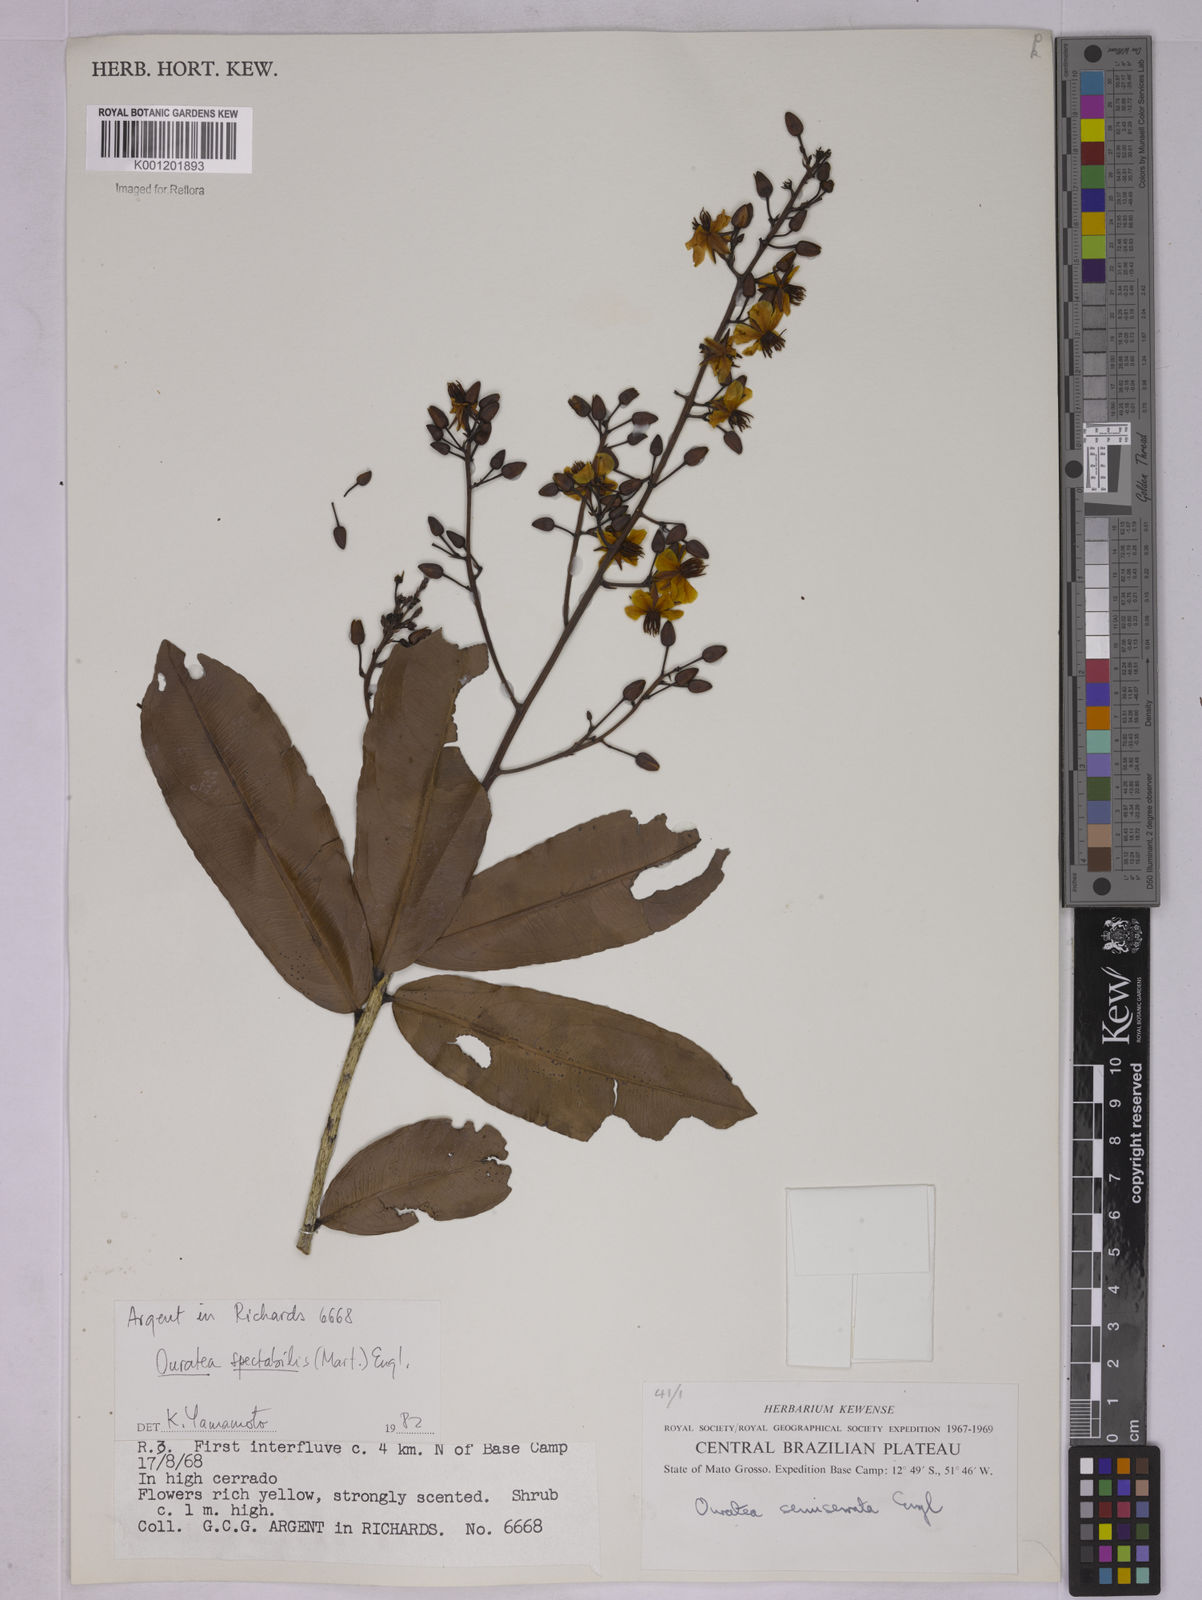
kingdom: Plantae
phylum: Tracheophyta
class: Magnoliopsida
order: Malpighiales
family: Ochnaceae
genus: Ouratea
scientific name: Ouratea spectabilis
